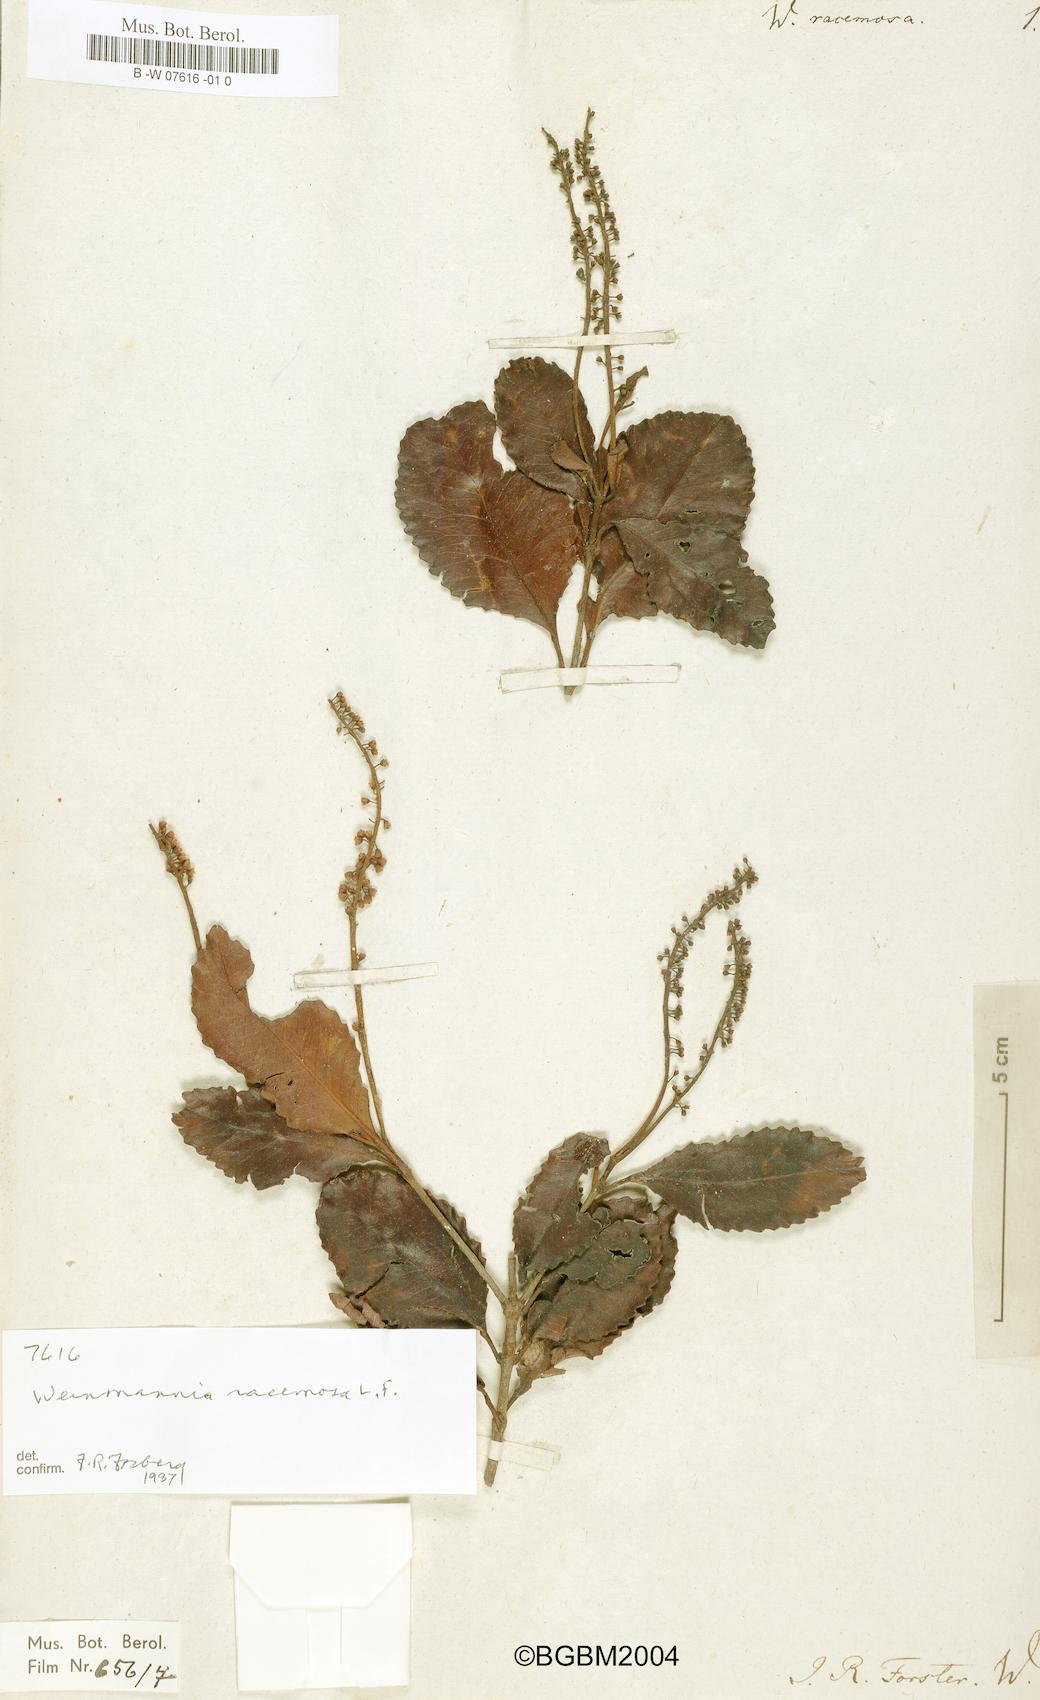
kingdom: Plantae
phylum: Tracheophyta
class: Magnoliopsida
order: Oxalidales
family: Cunoniaceae
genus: Pterophylla
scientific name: Pterophylla racemosa
